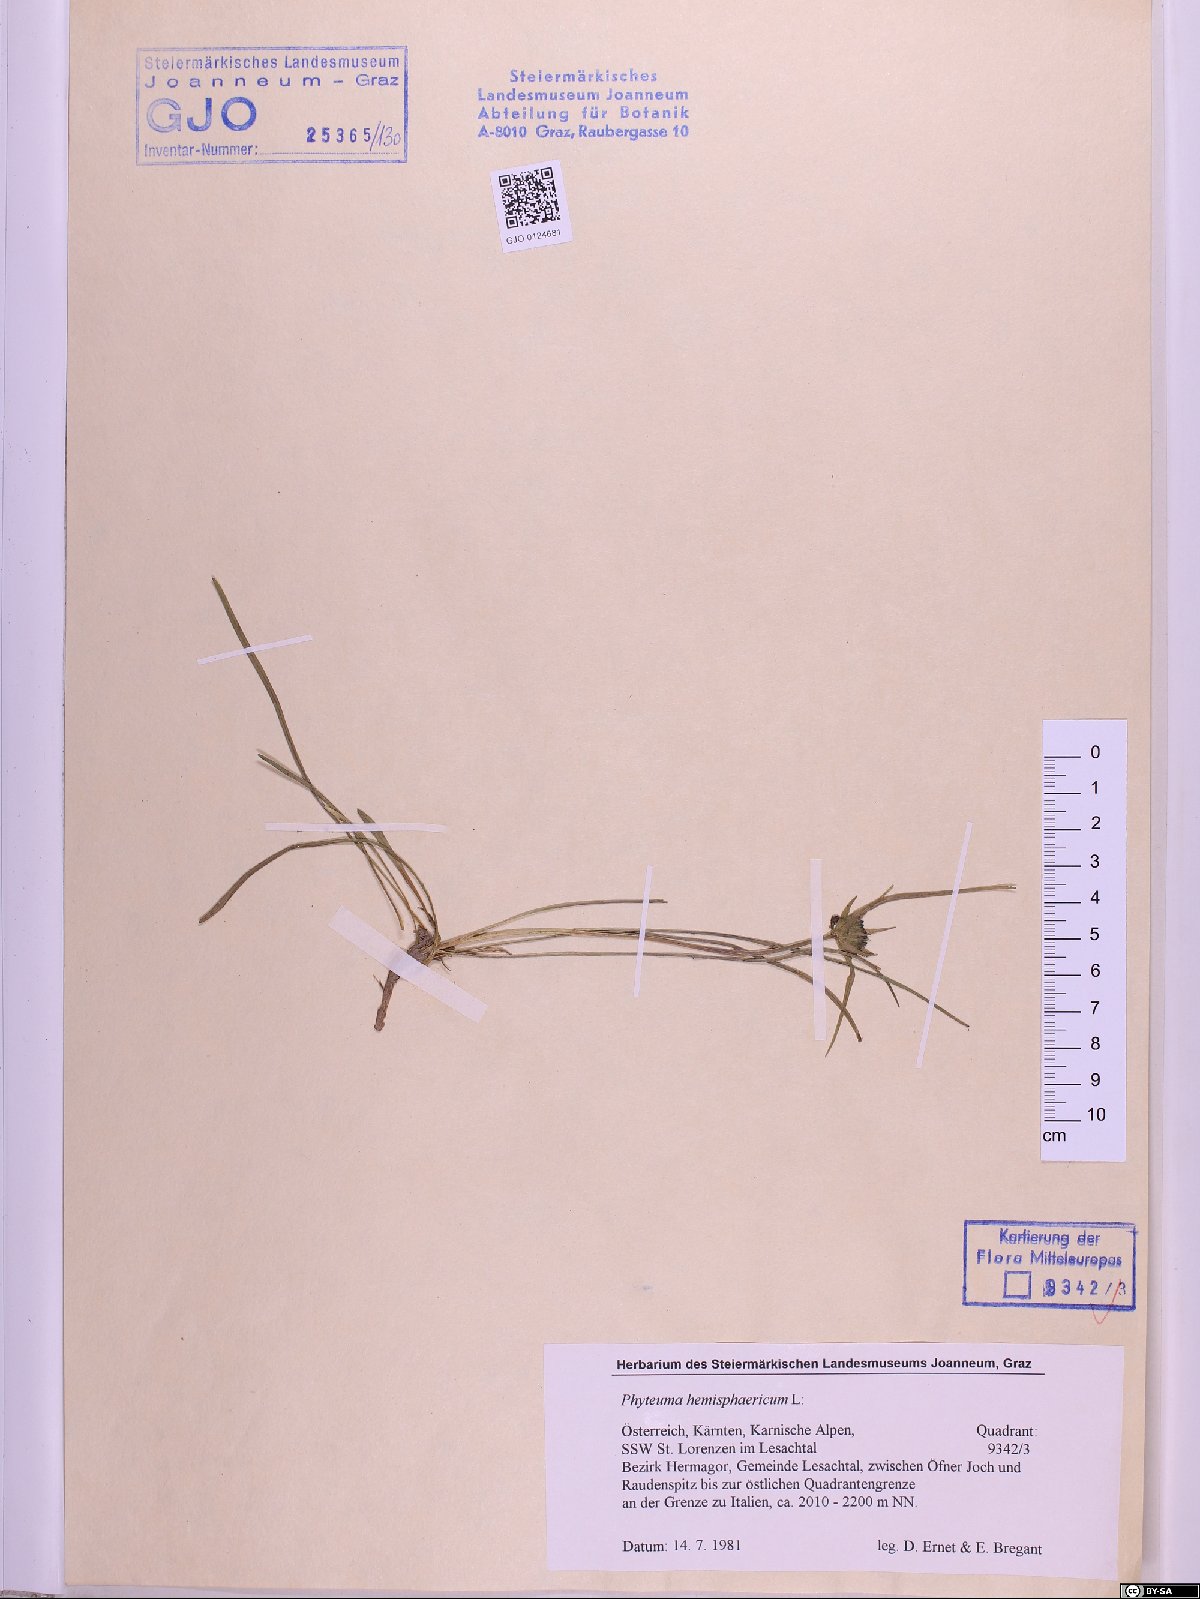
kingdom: Plantae
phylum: Tracheophyta
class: Magnoliopsida
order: Asterales
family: Campanulaceae
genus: Phyteuma
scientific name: Phyteuma hemisphaericum
